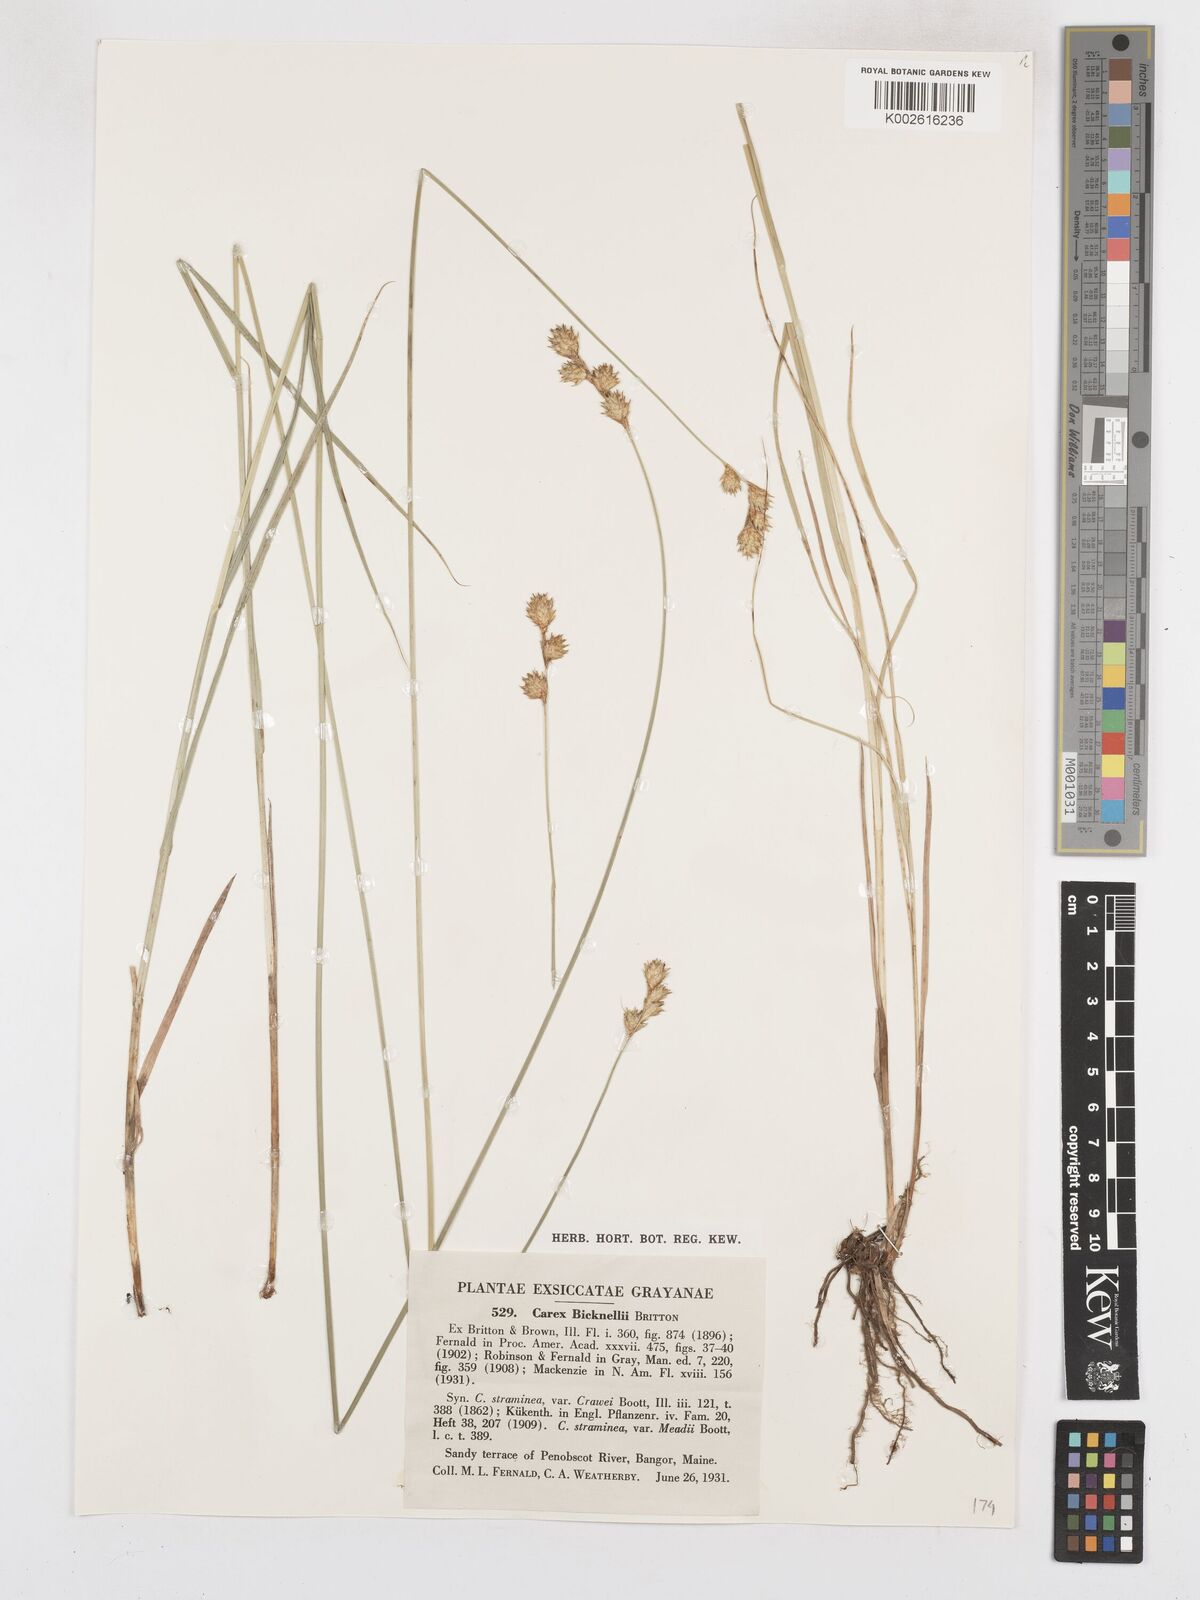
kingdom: Plantae
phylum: Tracheophyta
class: Liliopsida
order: Poales
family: Cyperaceae
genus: Carex
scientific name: Carex bicknellii
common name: Bicknell's sedge
